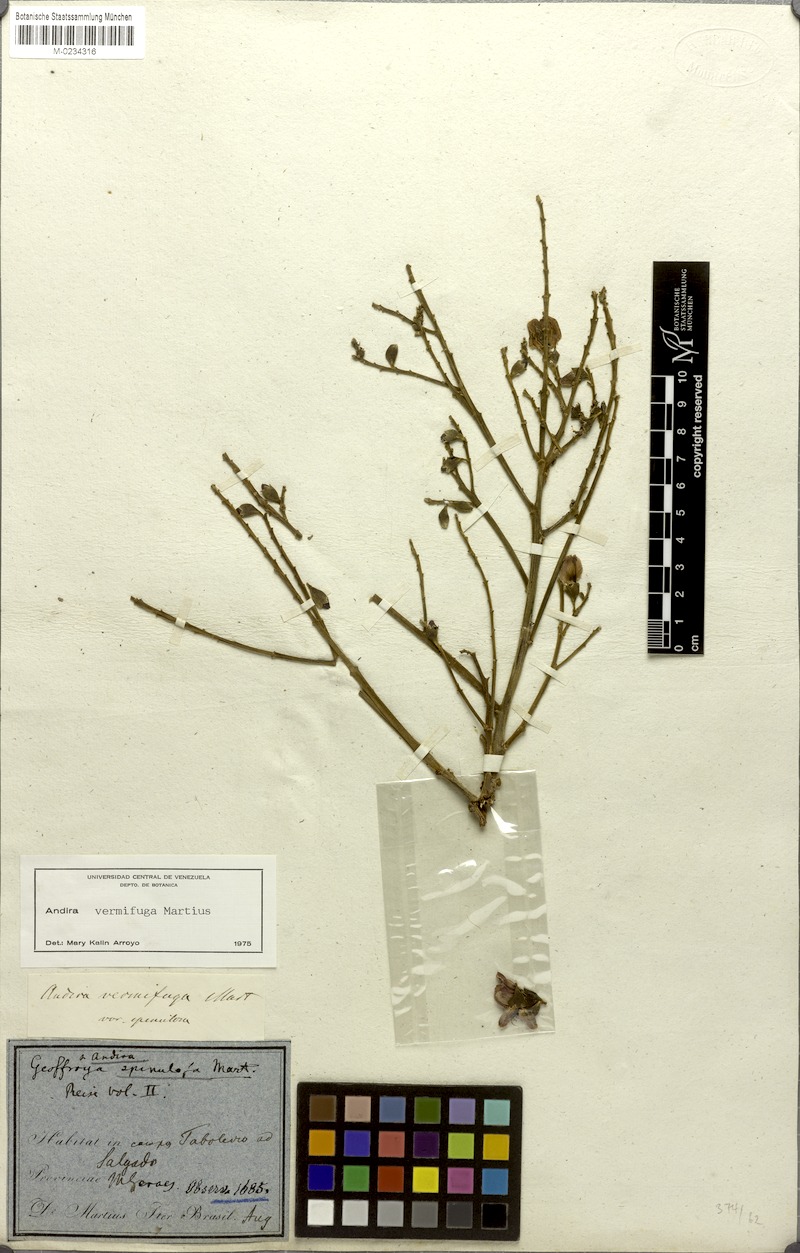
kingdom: Plantae
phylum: Tracheophyta
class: Magnoliopsida
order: Fabales
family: Fabaceae
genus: Andira
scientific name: Andira vermifuga
